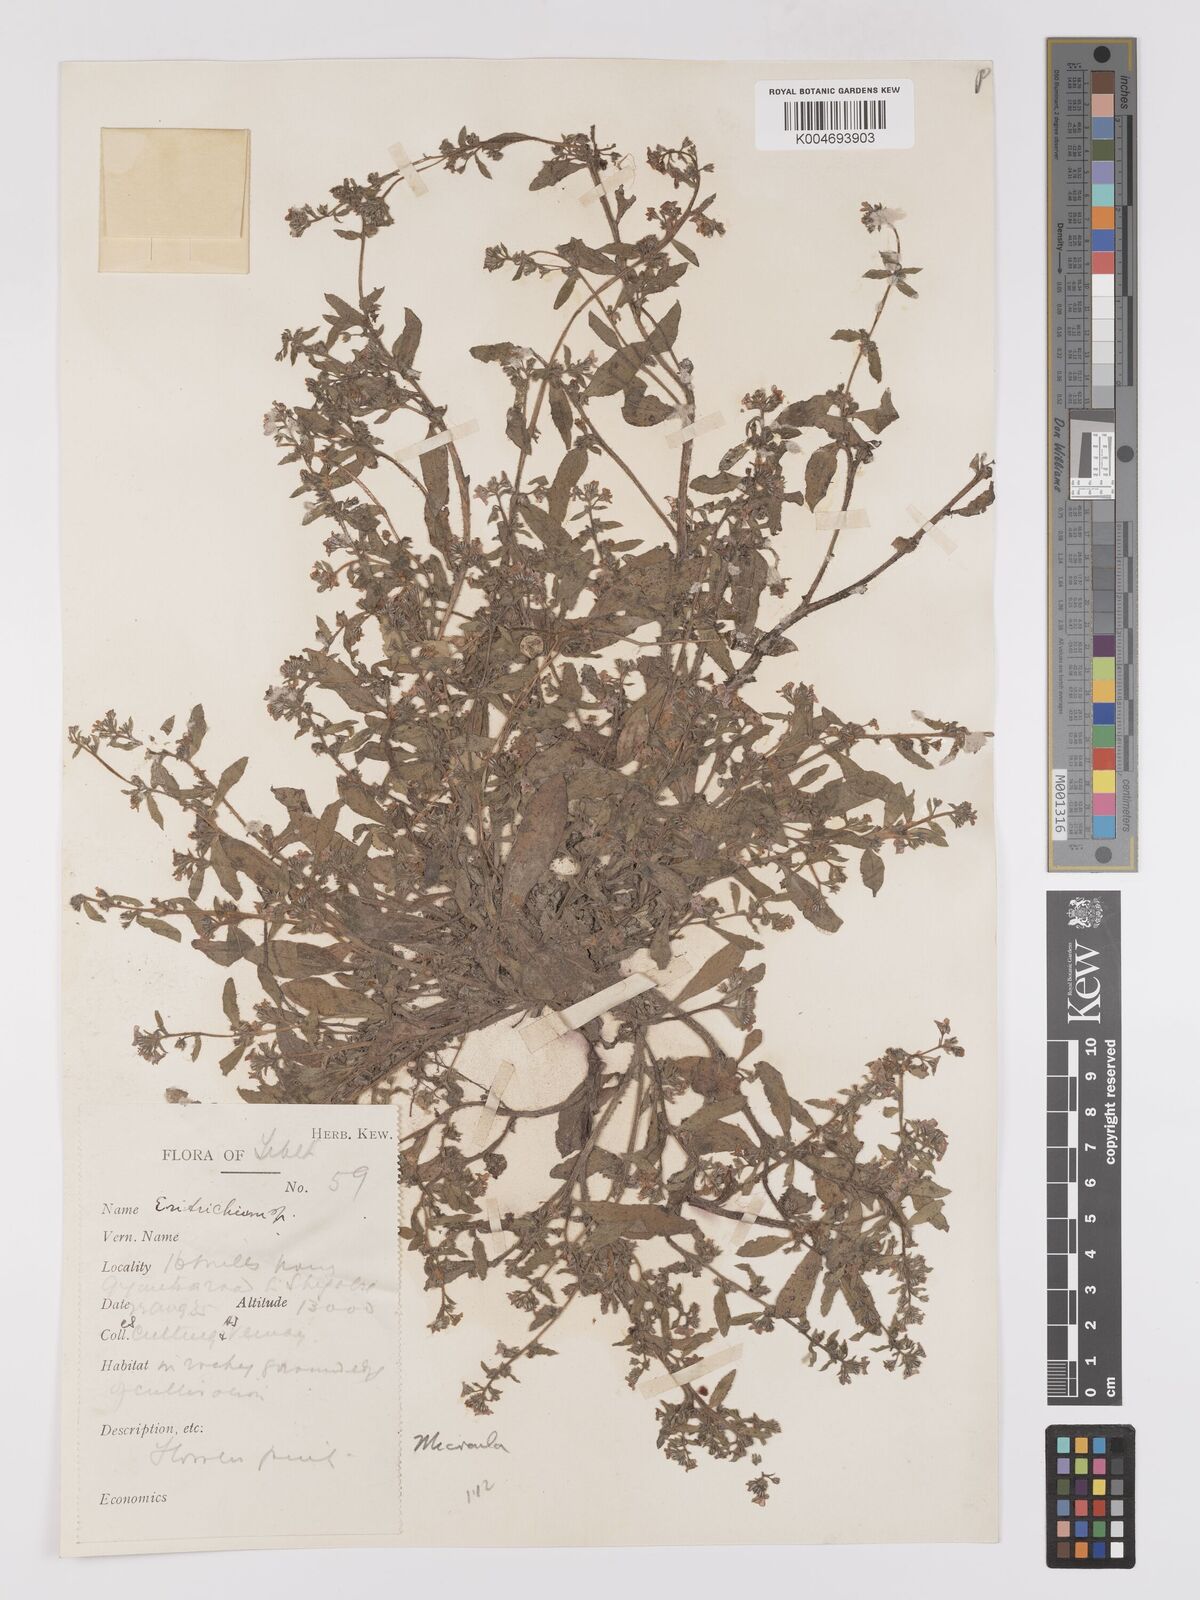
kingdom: Plantae
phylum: Tracheophyta
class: Magnoliopsida
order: Boraginales
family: Boraginaceae
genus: Microula
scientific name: Microula sikkimensis
